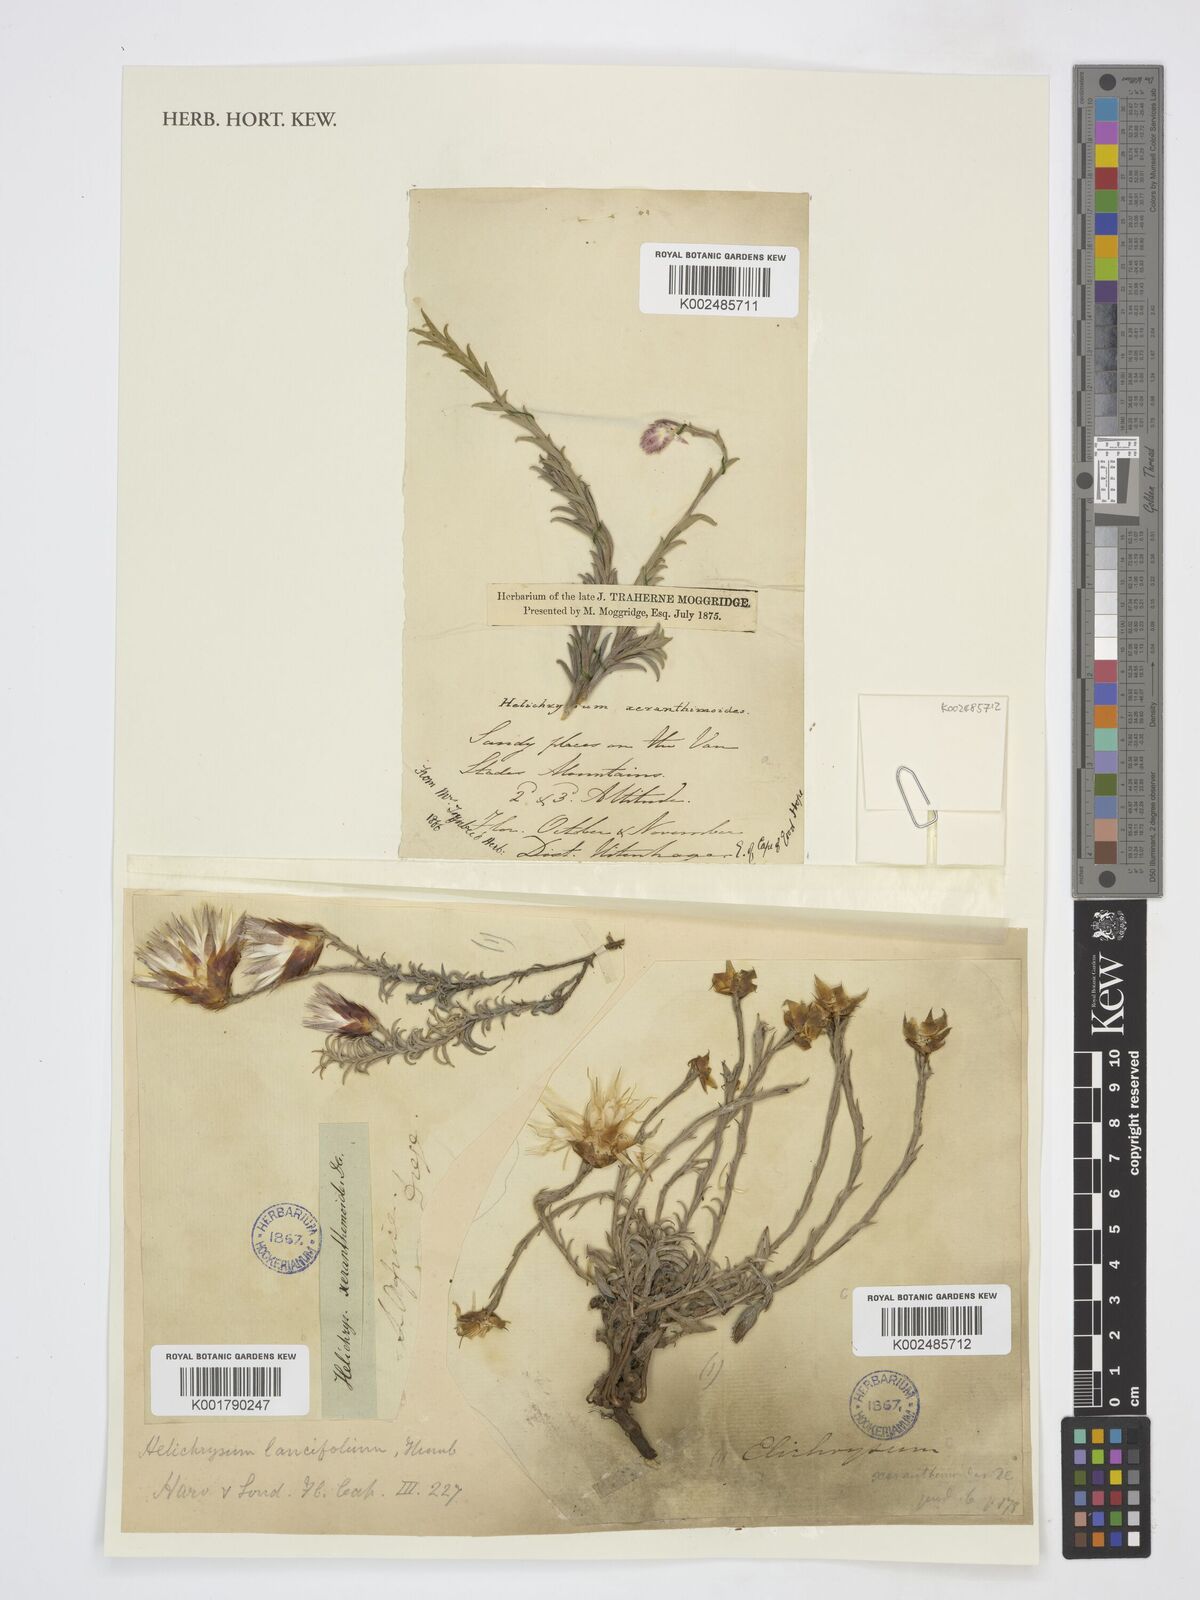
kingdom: Plantae
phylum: Tracheophyta
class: Magnoliopsida
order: Asterales
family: Asteraceae
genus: Helichrysum
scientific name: Helichrysum lancifolium
